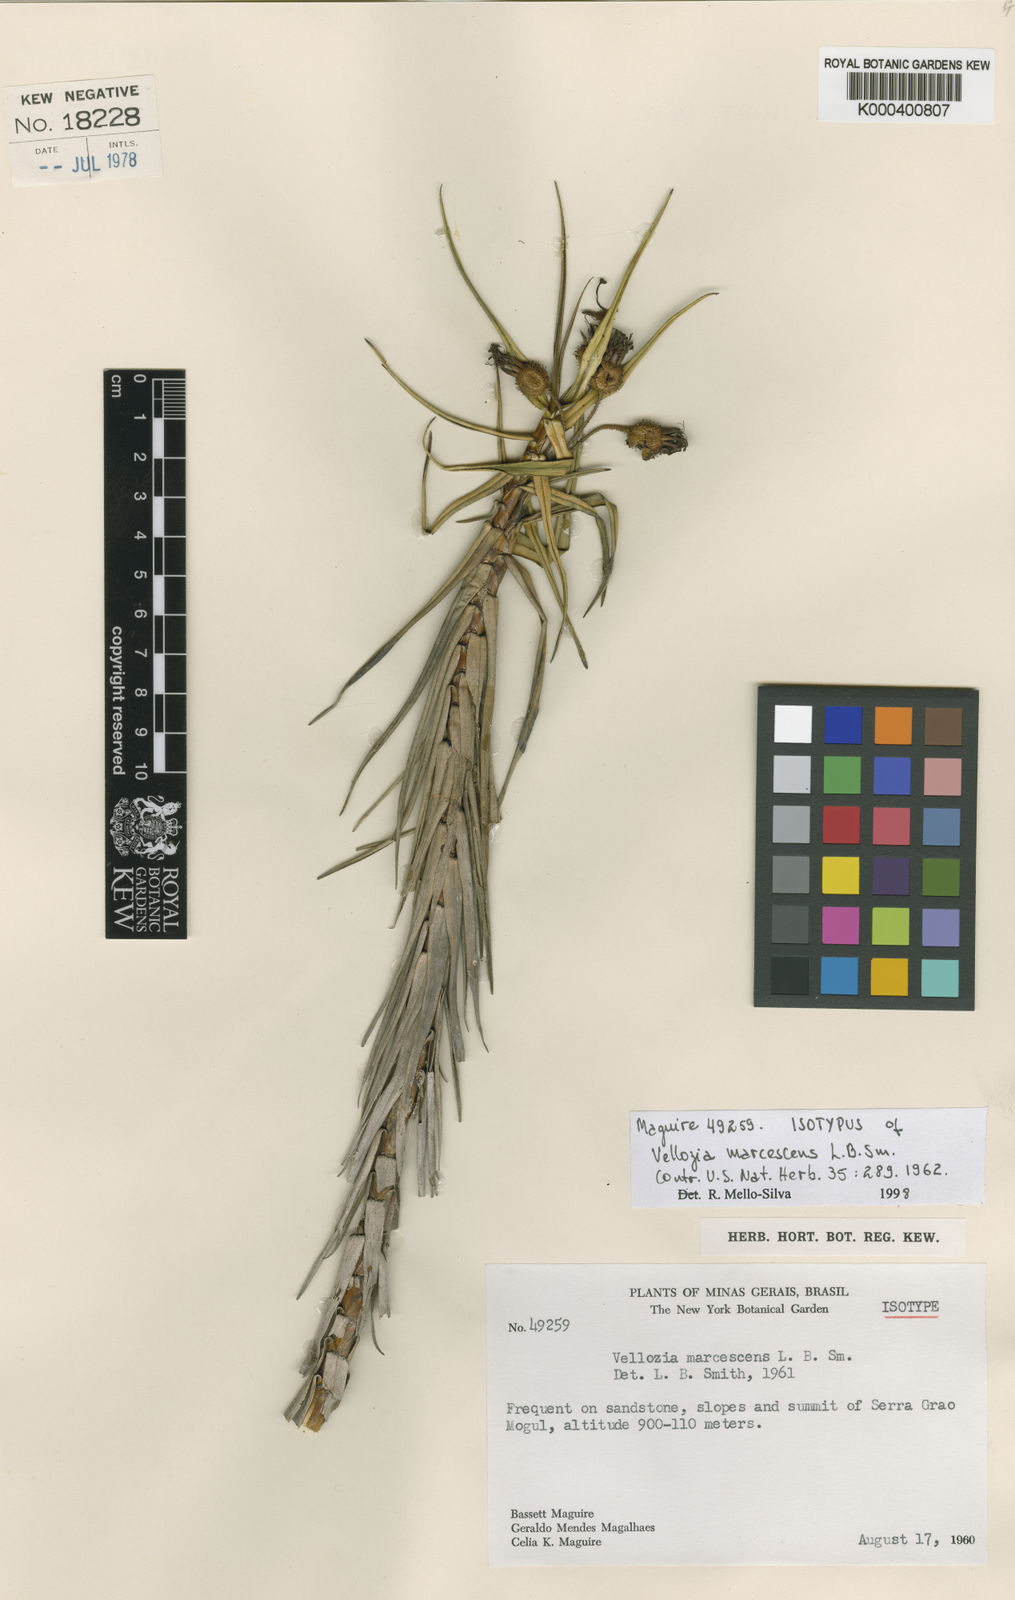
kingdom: Plantae
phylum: Tracheophyta
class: Liliopsida
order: Pandanales
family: Velloziaceae
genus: Vellozia
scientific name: Vellozia marcescens
